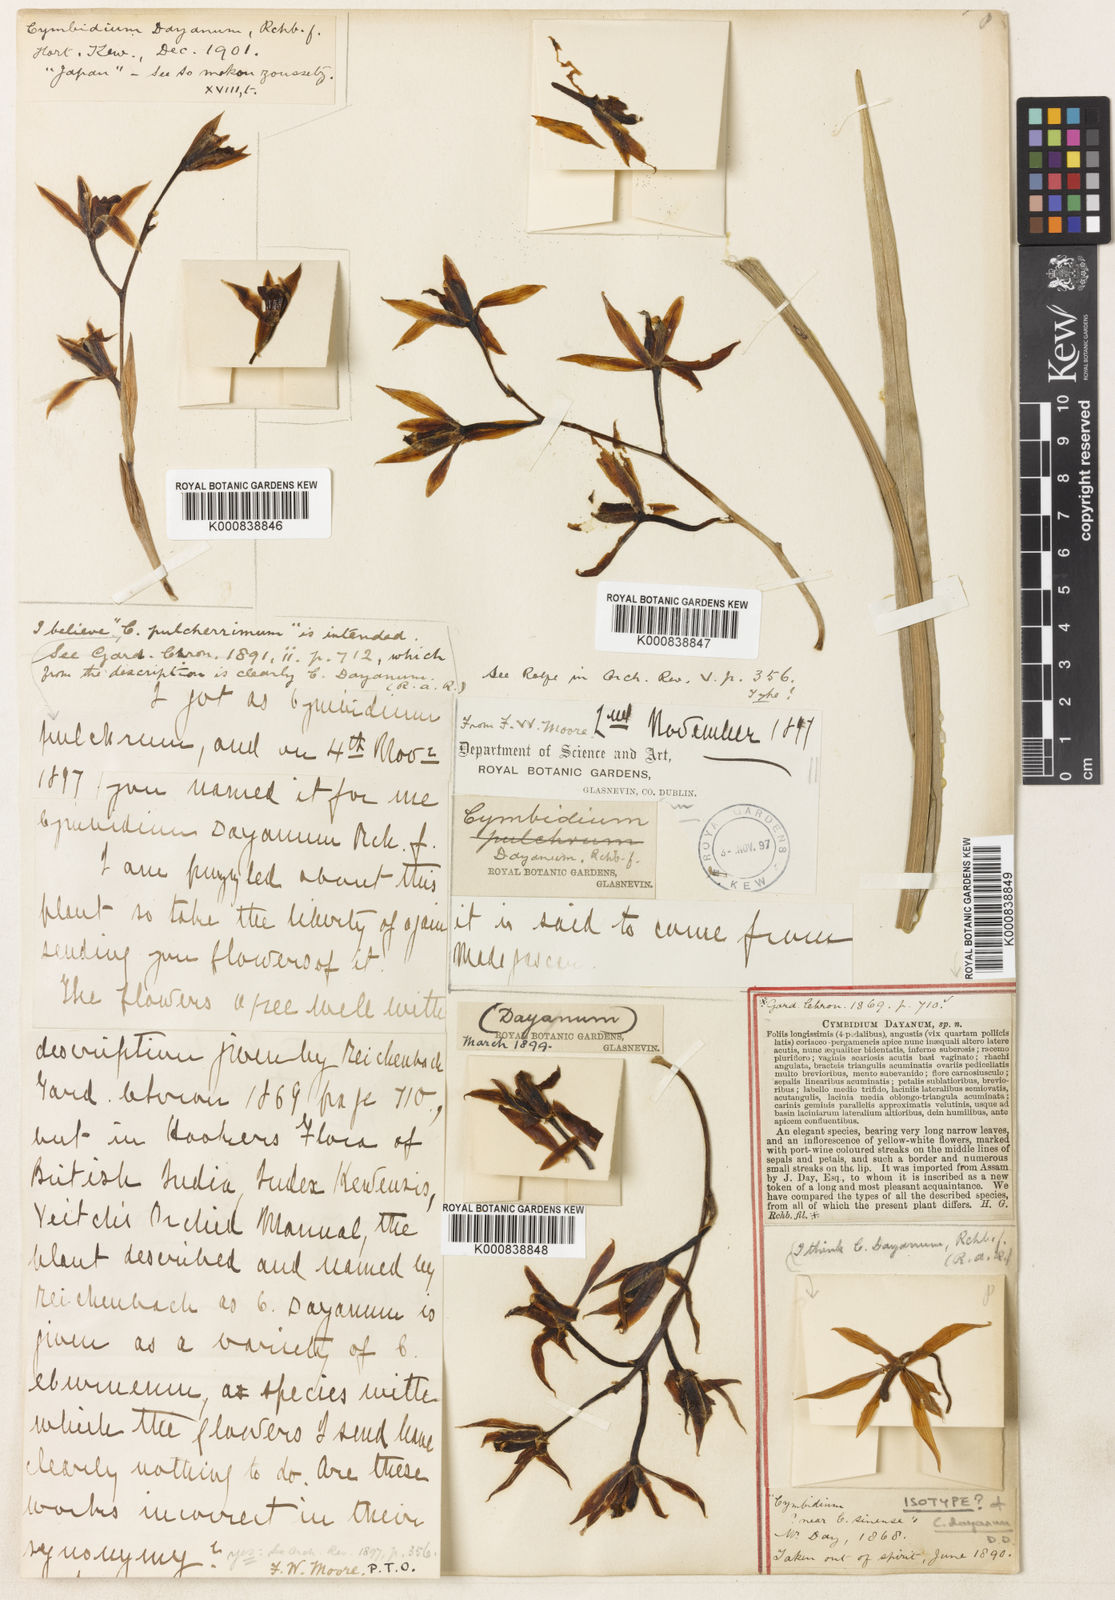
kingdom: Plantae
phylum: Tracheophyta
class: Liliopsida
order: Asparagales
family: Orchidaceae
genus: Cymbidium
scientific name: Cymbidium dayanum
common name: Orchid
